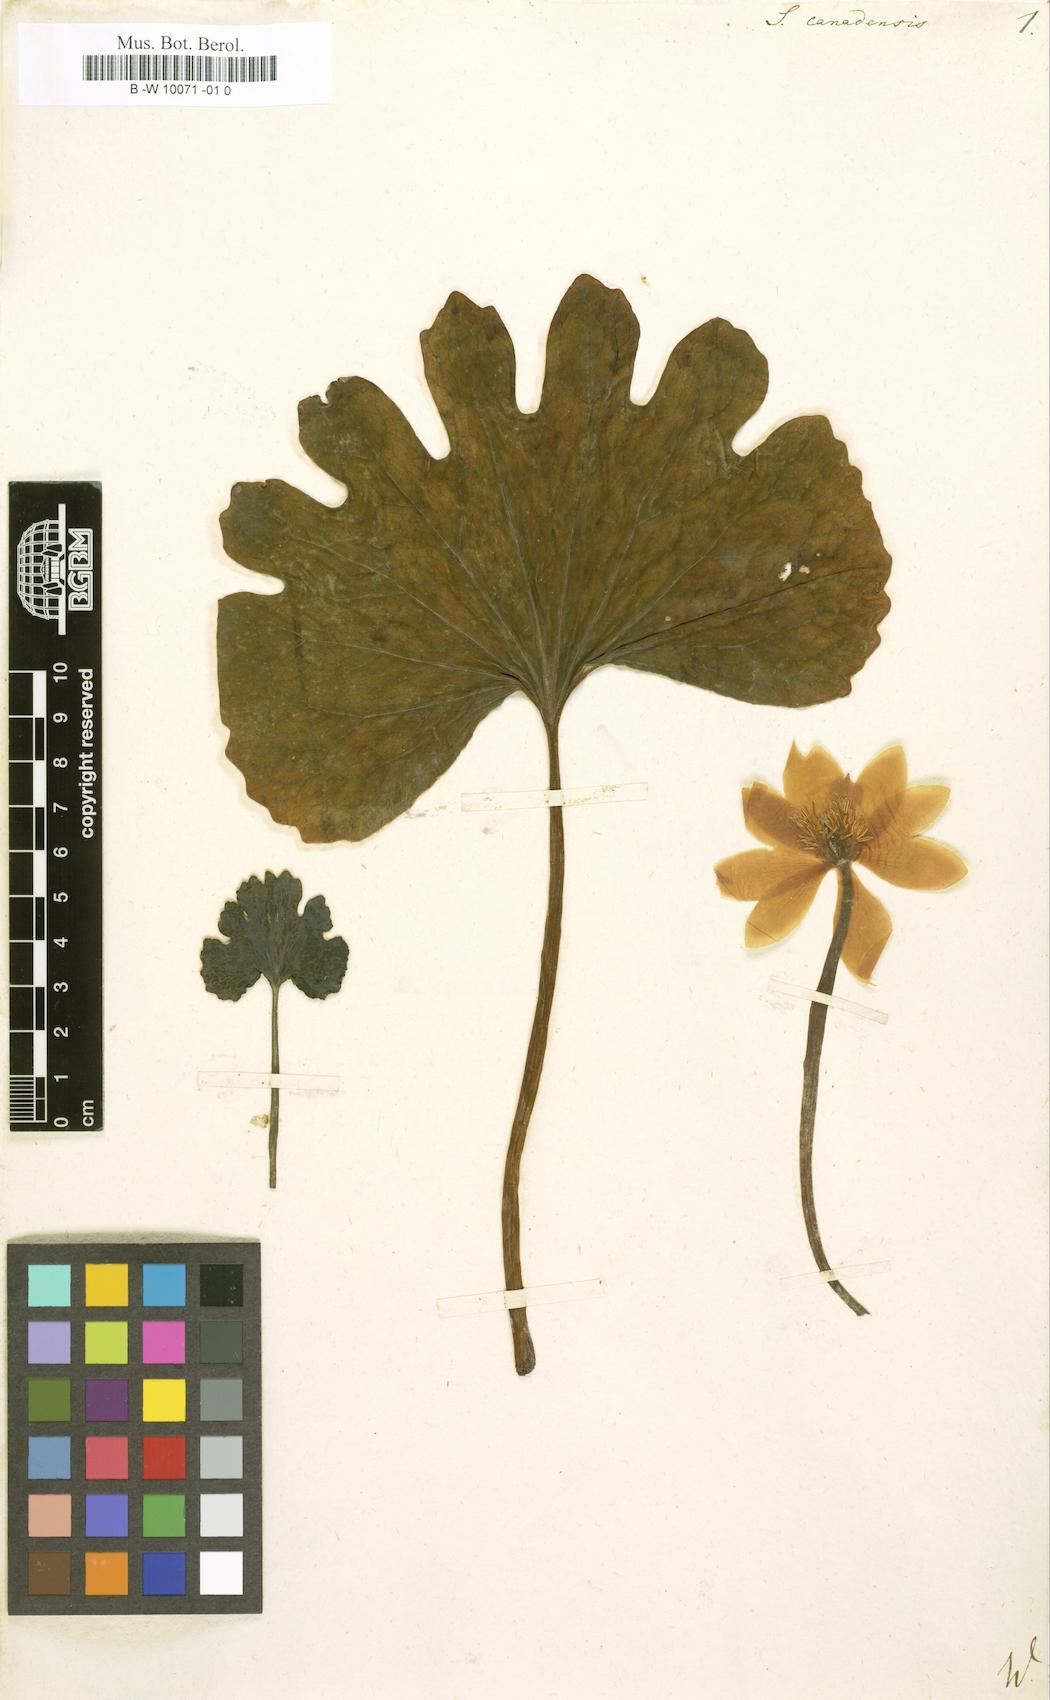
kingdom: Plantae
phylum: Tracheophyta
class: Magnoliopsida
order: Ranunculales
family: Papaveraceae
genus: Sanguinaria
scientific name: Sanguinaria canadensis
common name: Bloodroot
